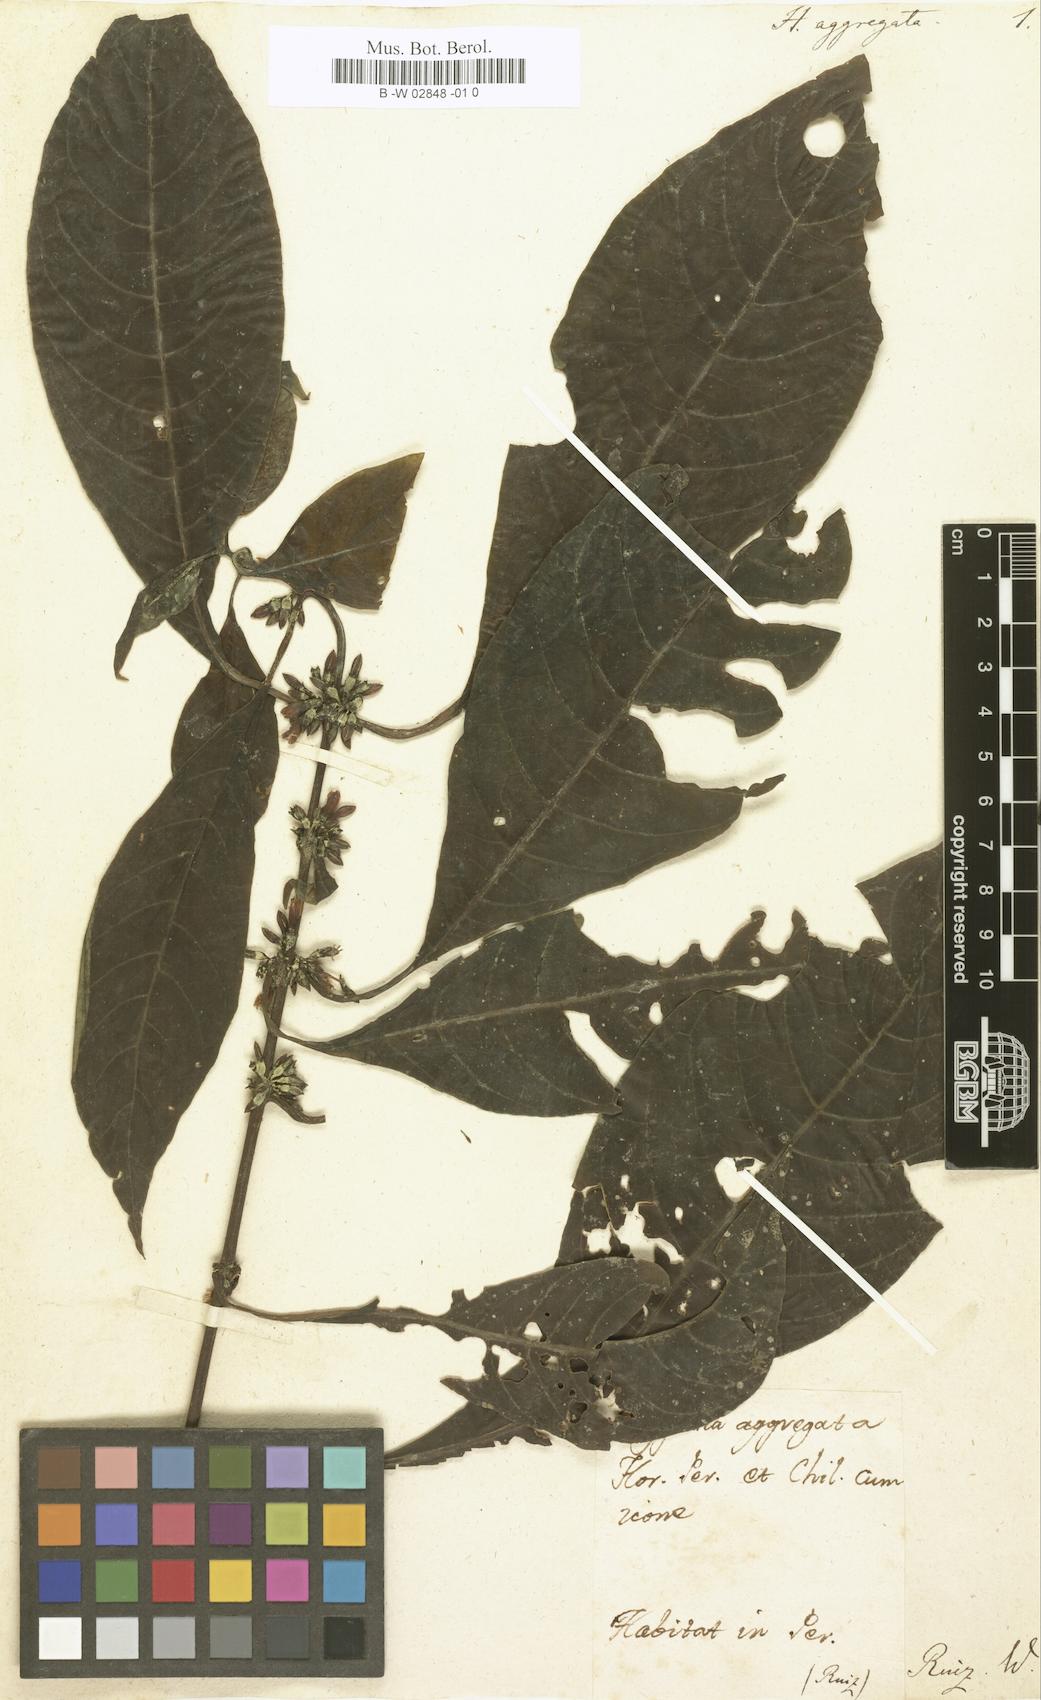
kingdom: Plantae
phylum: Tracheophyta
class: Magnoliopsida
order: Gentianales
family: Rubiaceae
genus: Hoffmannia
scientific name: Hoffmannia aggregata
